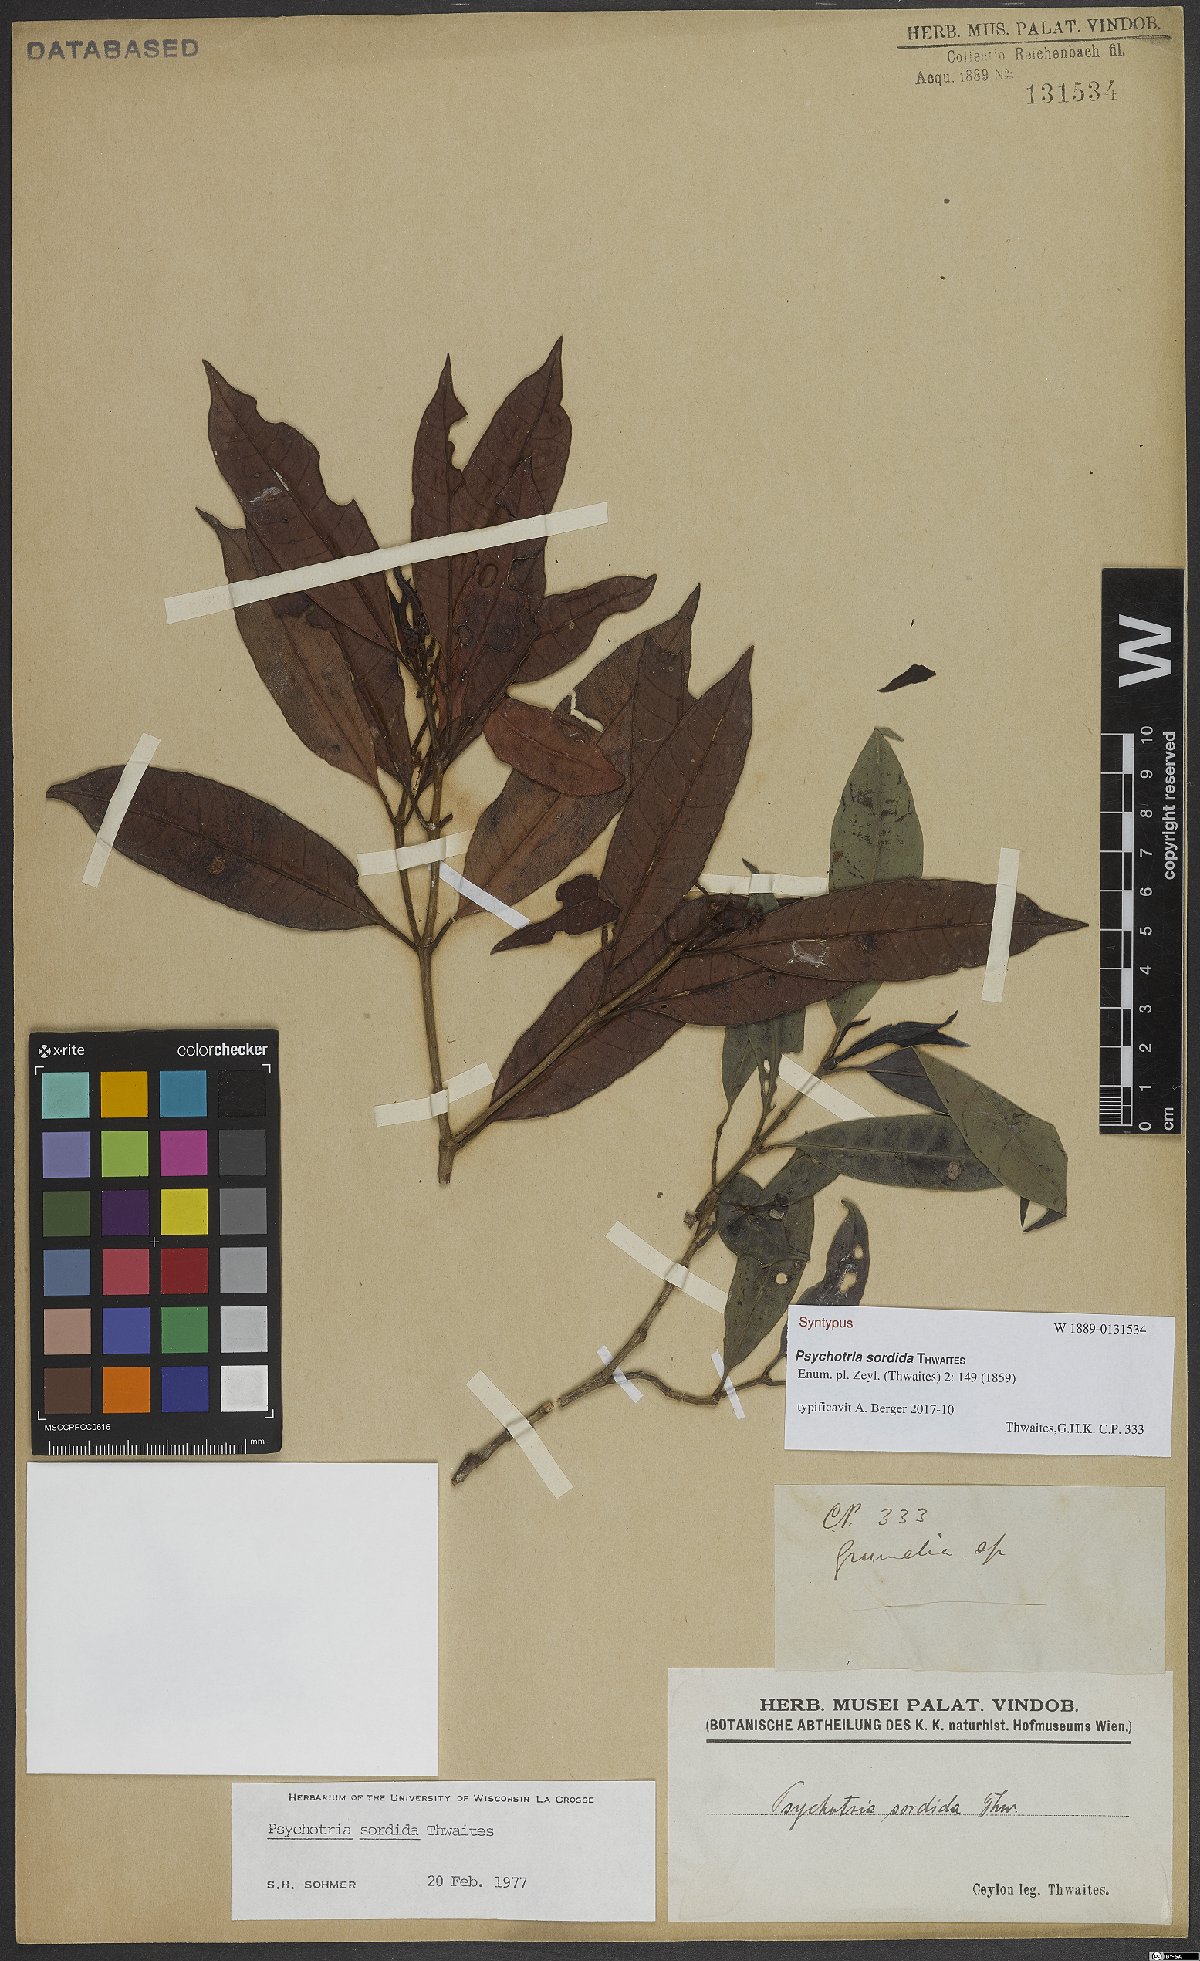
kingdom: Plantae
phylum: Tracheophyta
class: Magnoliopsida
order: Gentianales
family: Rubiaceae
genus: Psychotria
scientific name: Psychotria sordida
